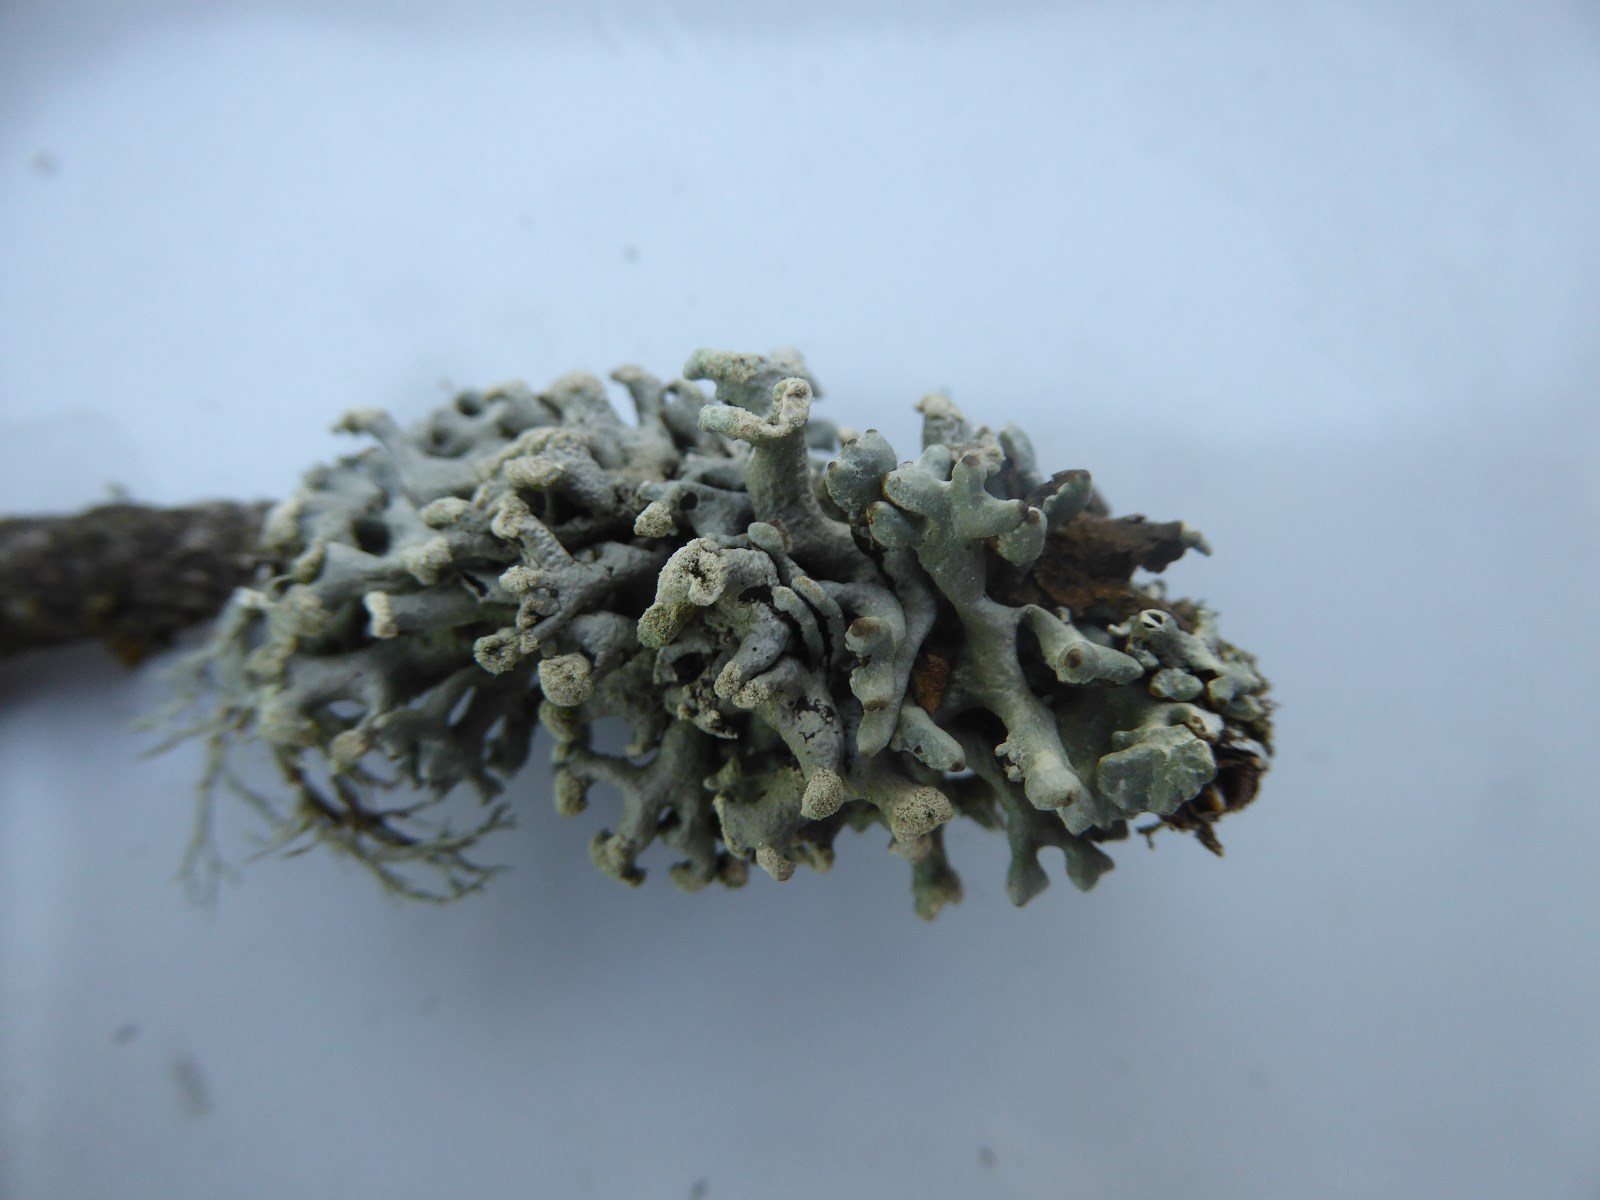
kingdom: Fungi
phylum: Ascomycota
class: Lecanoromycetes
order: Lecanorales
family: Parmeliaceae
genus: Hypogymnia
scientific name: Hypogymnia tubulosa
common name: finger-kvistlav
